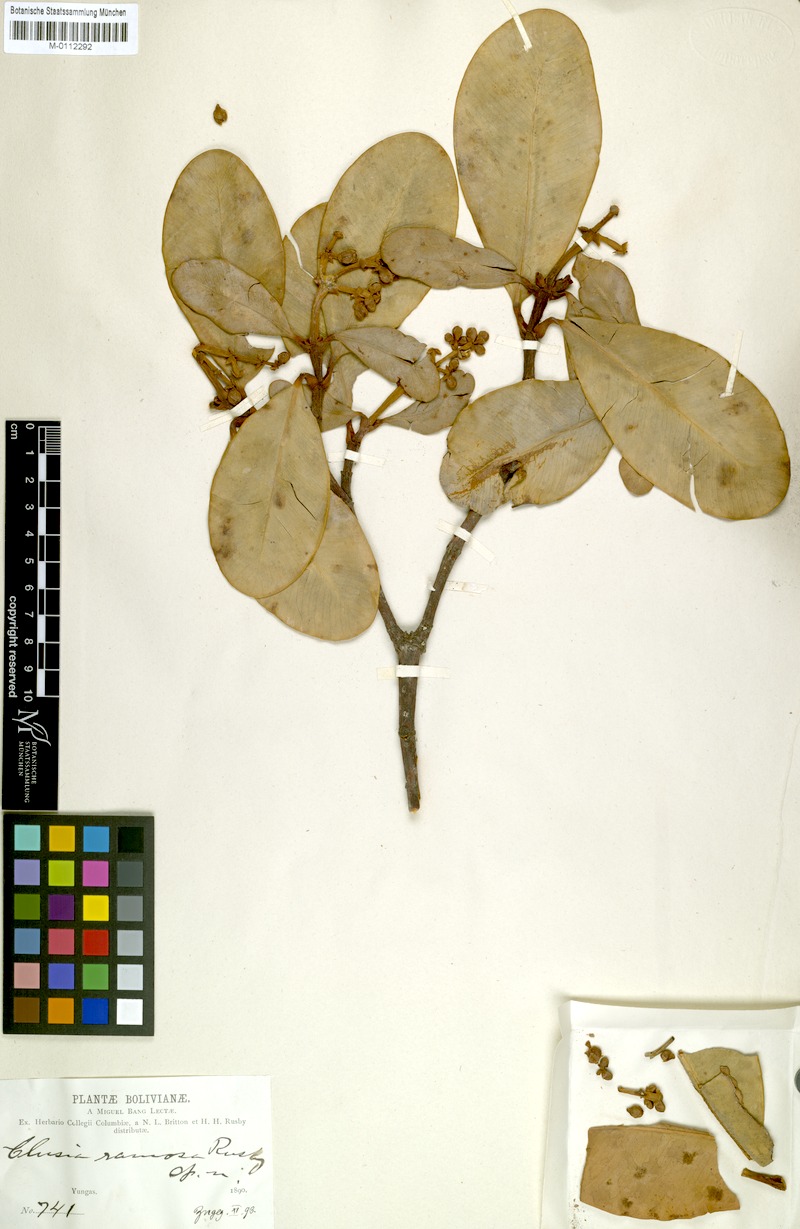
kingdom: Plantae
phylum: Tracheophyta
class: Magnoliopsida
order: Malpighiales
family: Clusiaceae
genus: Clusia
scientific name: Clusia ramosa
